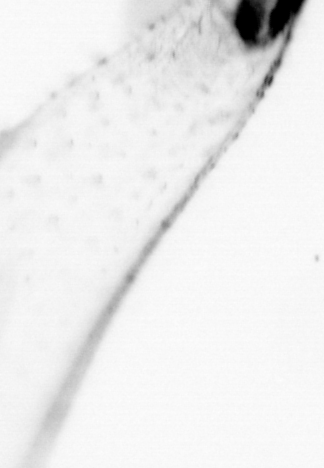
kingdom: Animalia
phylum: Chaetognatha
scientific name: Chaetognatha
